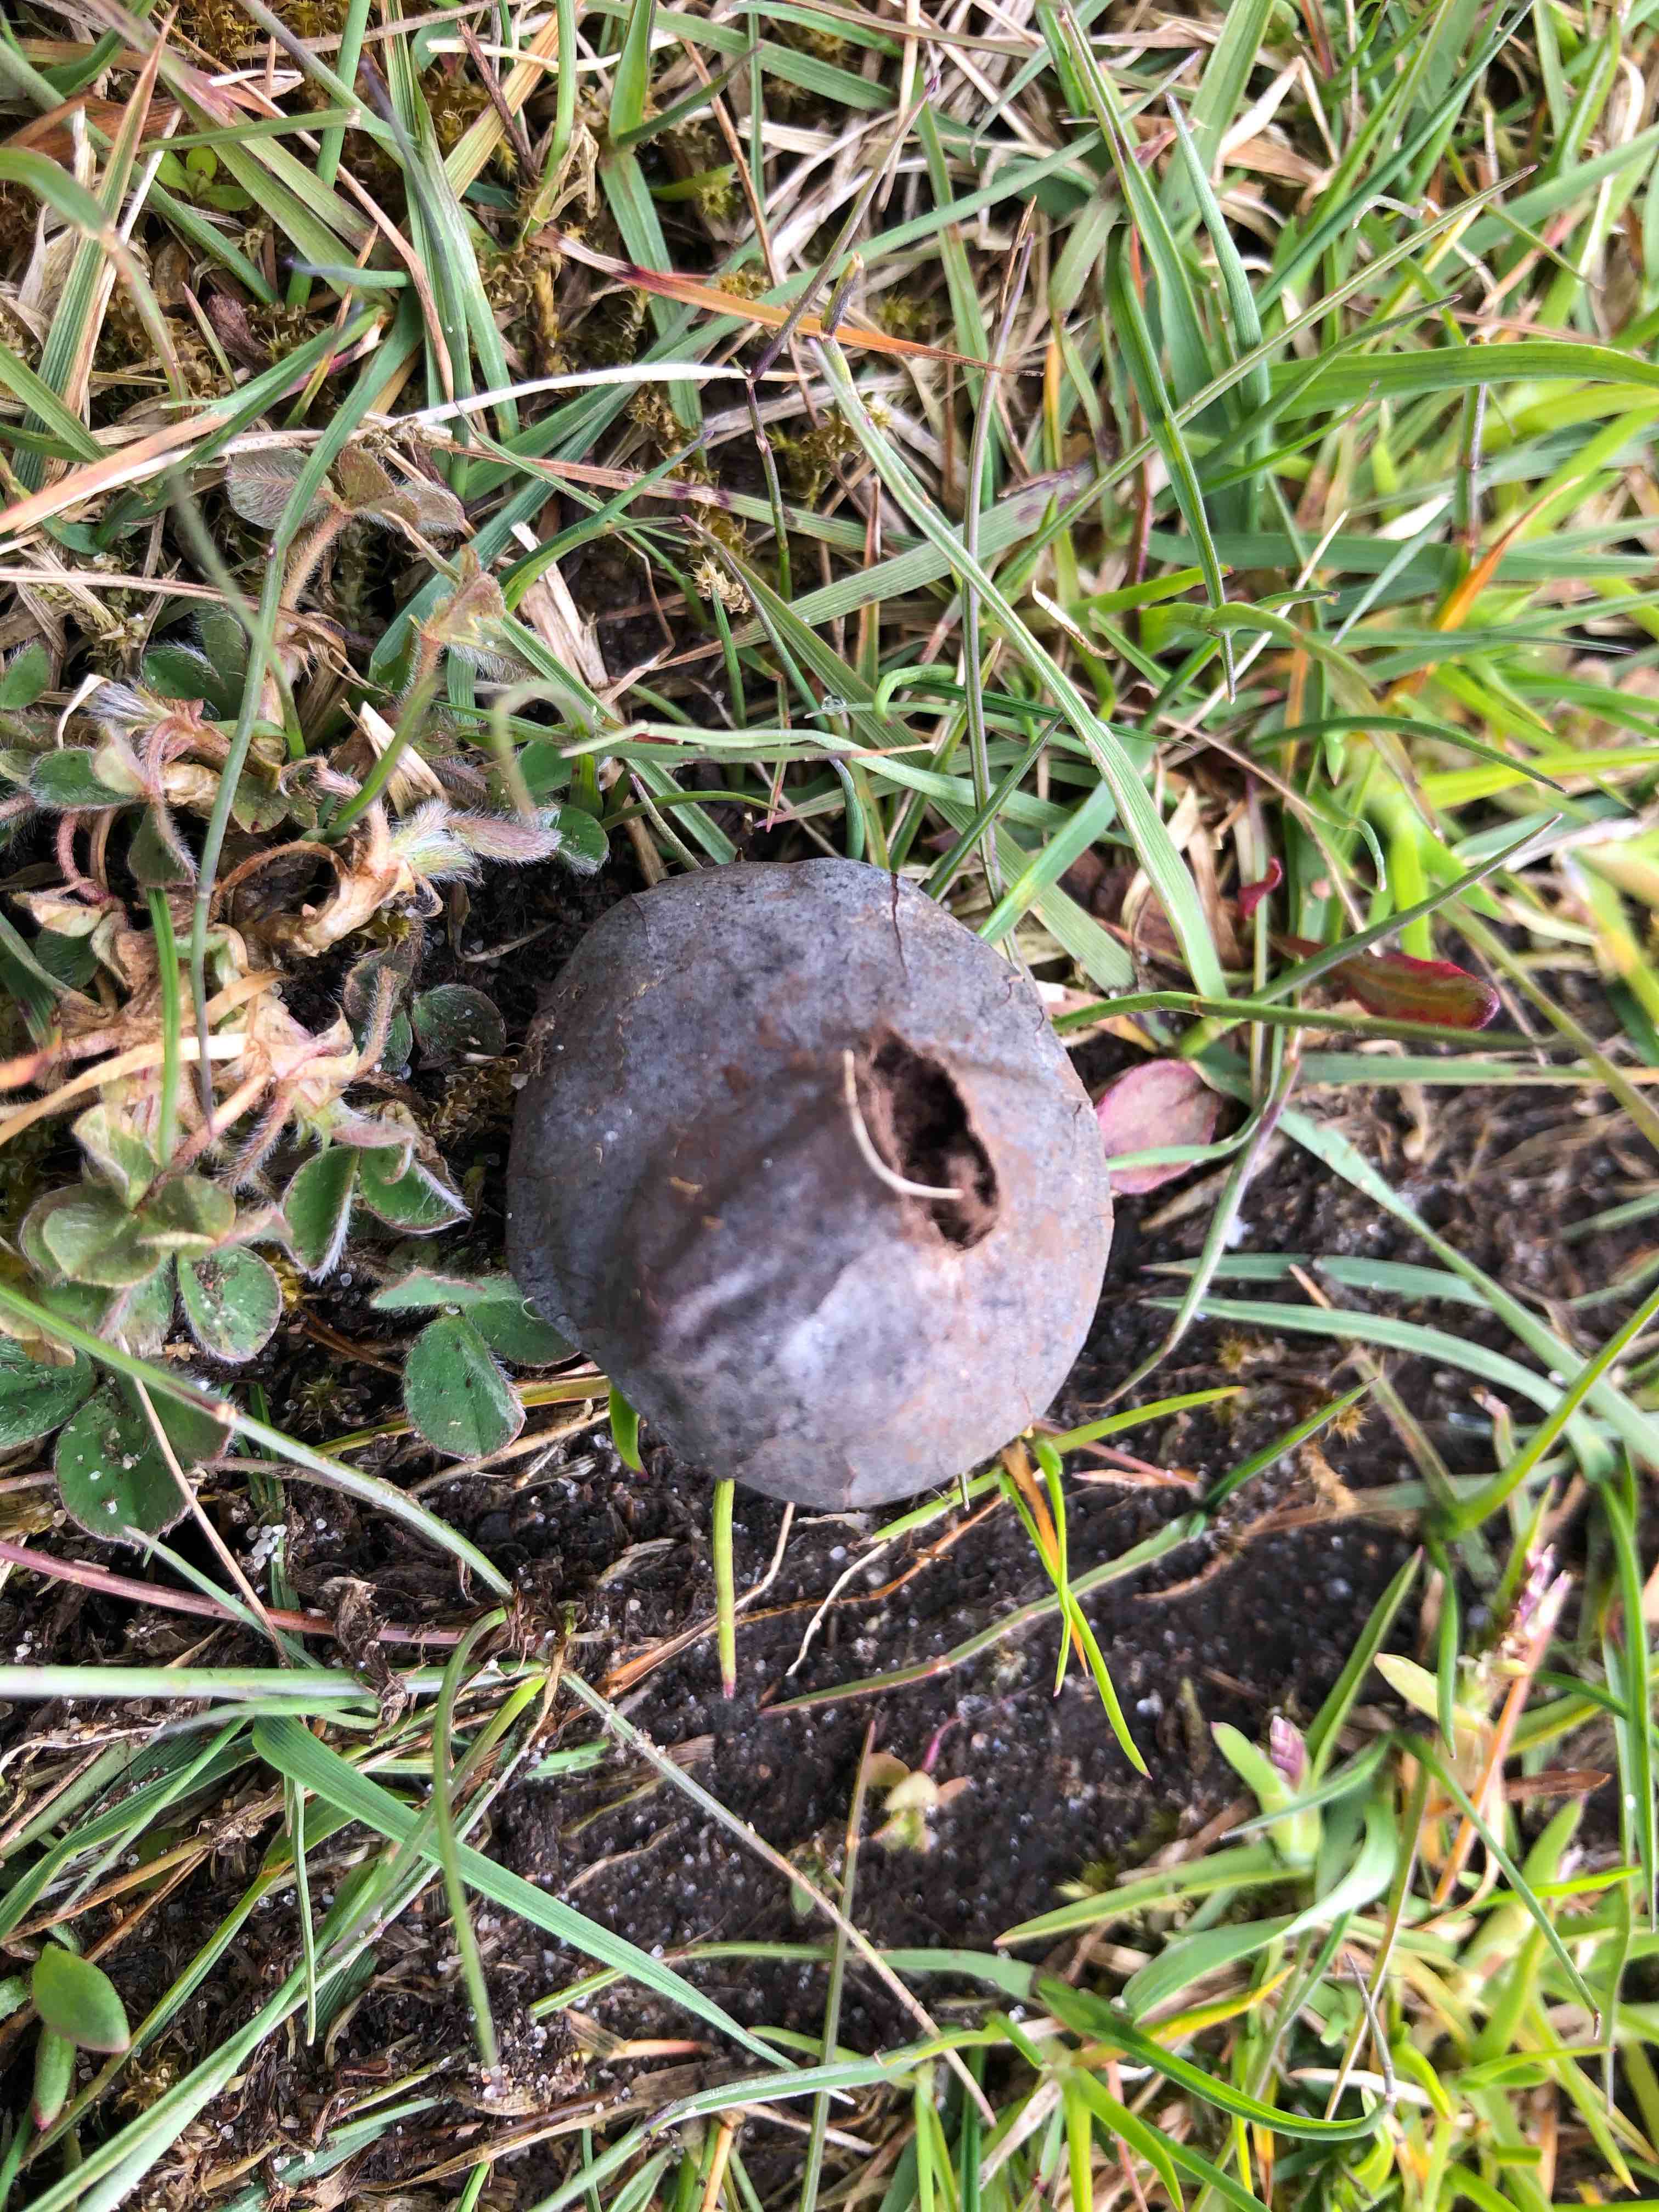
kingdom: Fungi
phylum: Basidiomycota
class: Agaricomycetes
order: Agaricales
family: Lycoperdaceae
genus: Bovista
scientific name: Bovista plumbea
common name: blygrå bovist
